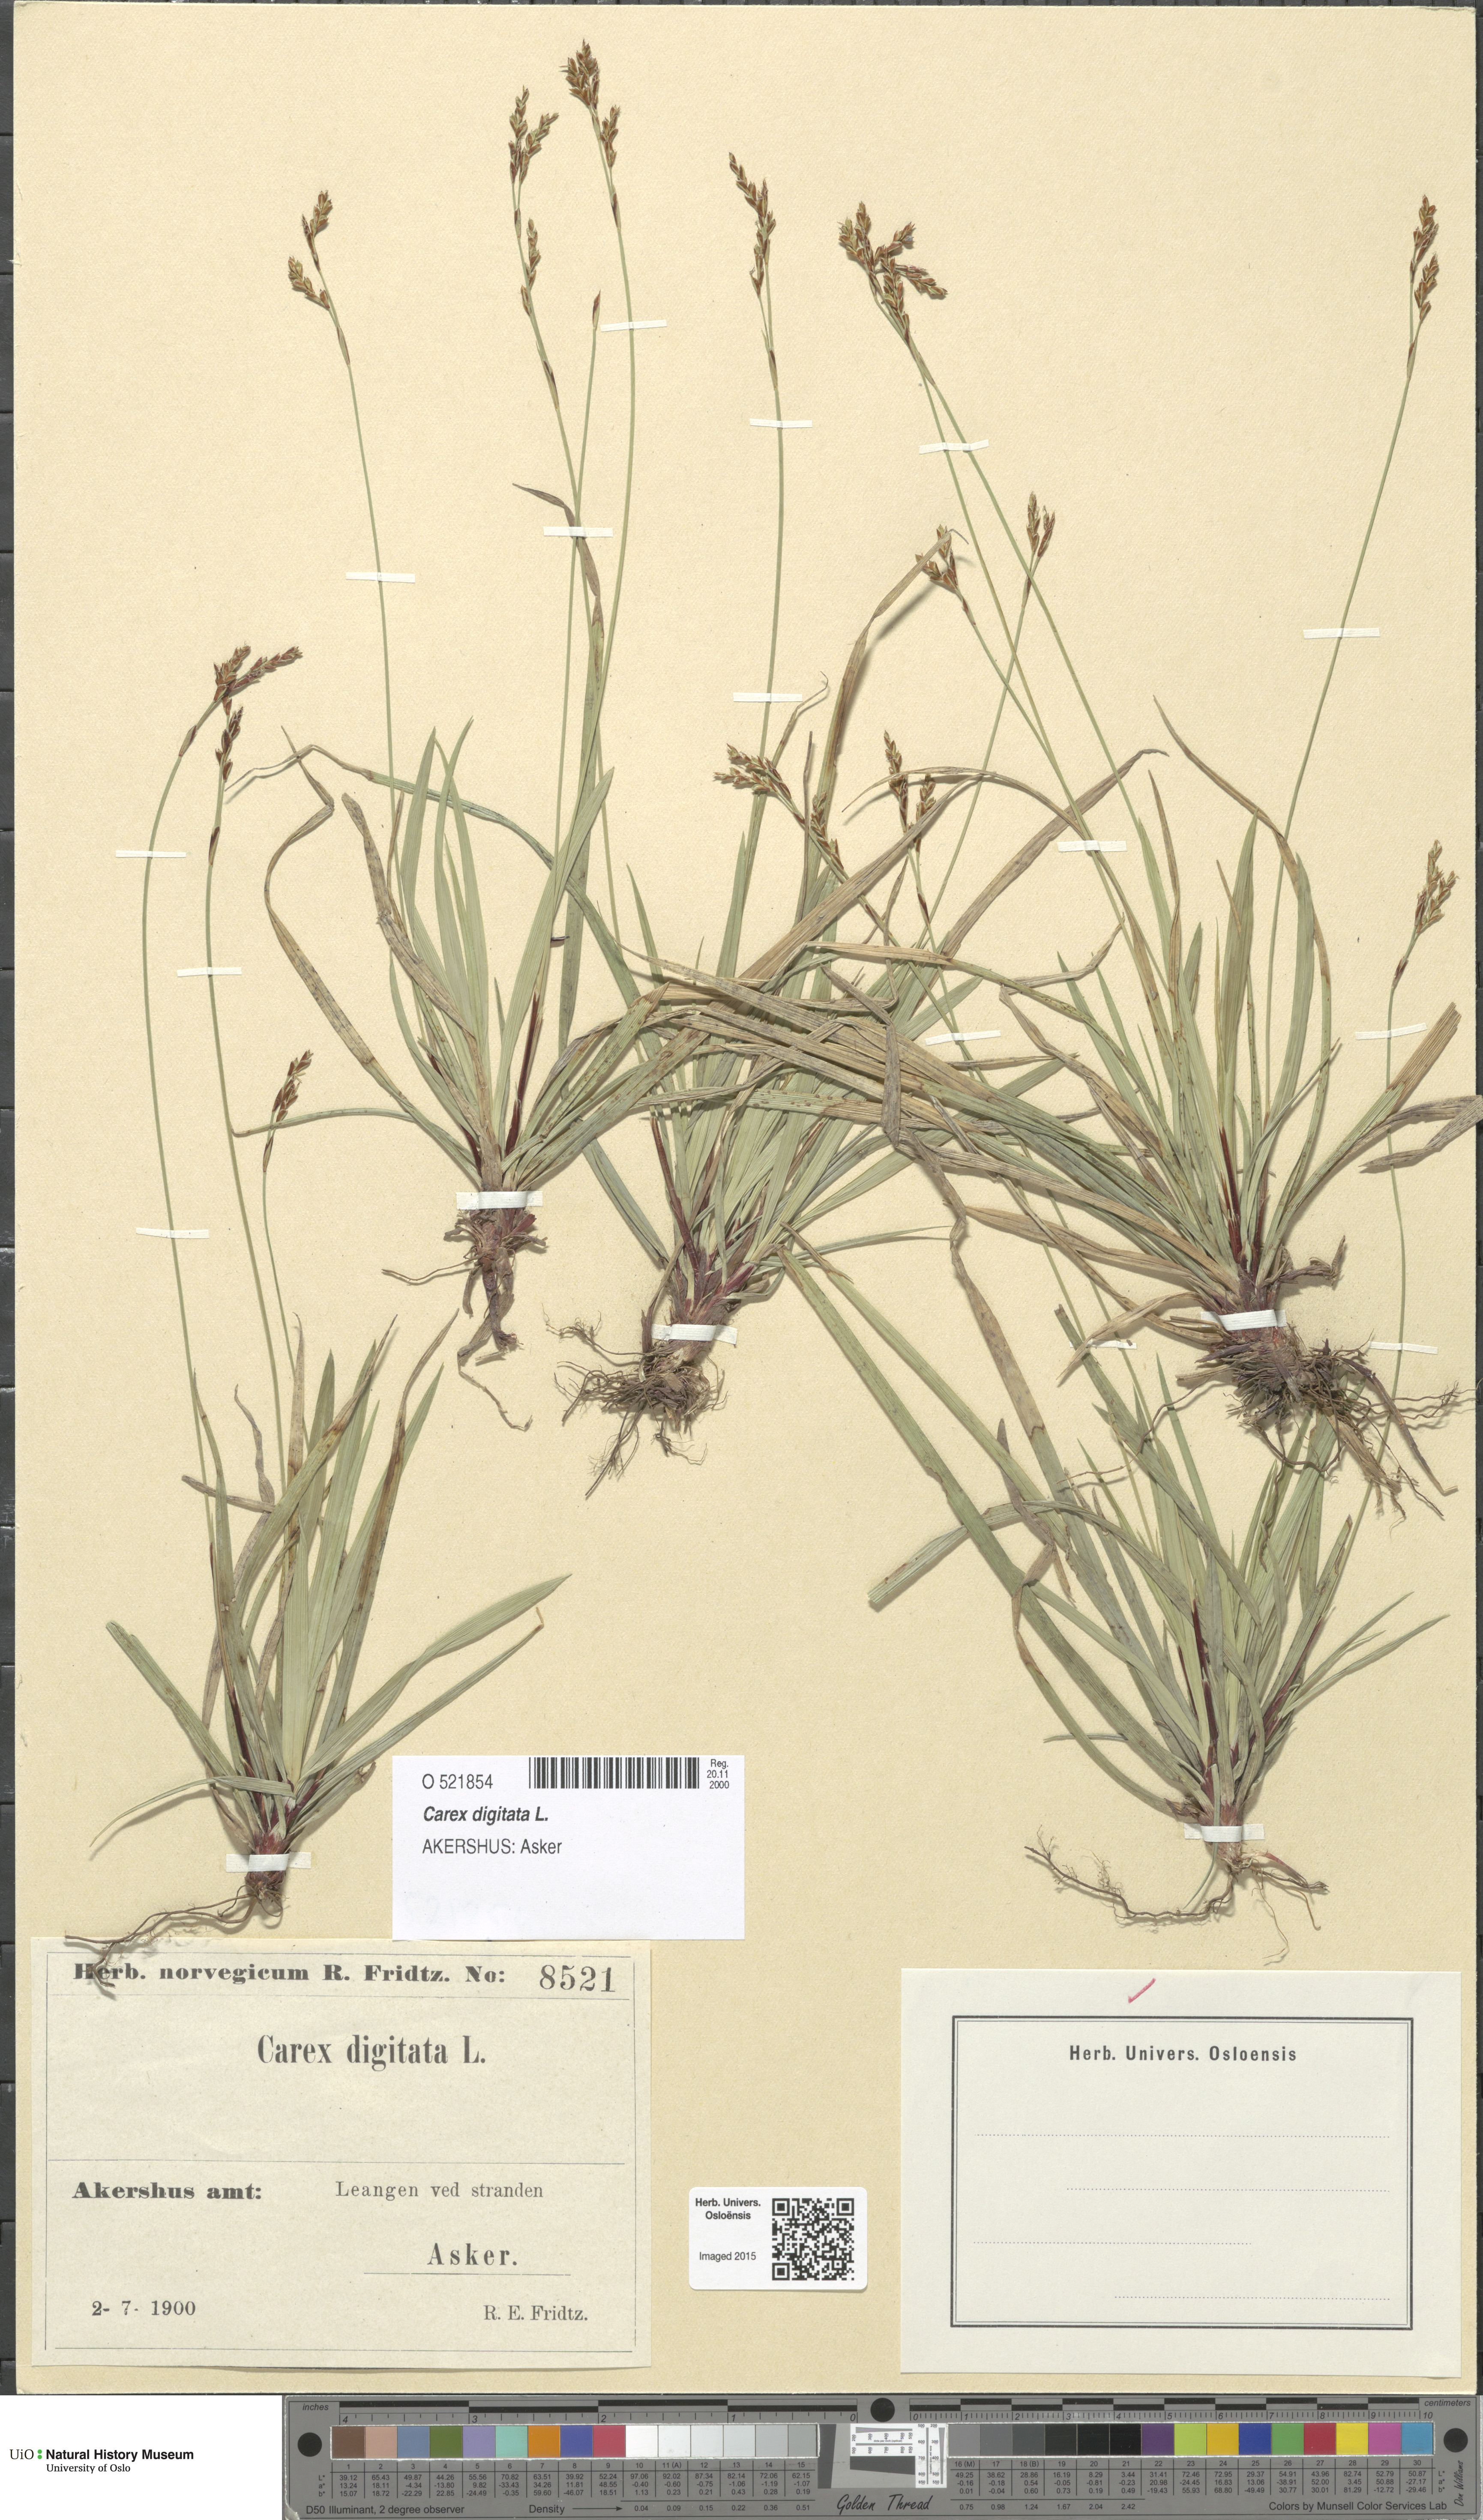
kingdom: Plantae
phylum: Tracheophyta
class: Liliopsida
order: Poales
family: Cyperaceae
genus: Carex
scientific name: Carex digitata
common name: Fingered sedge
